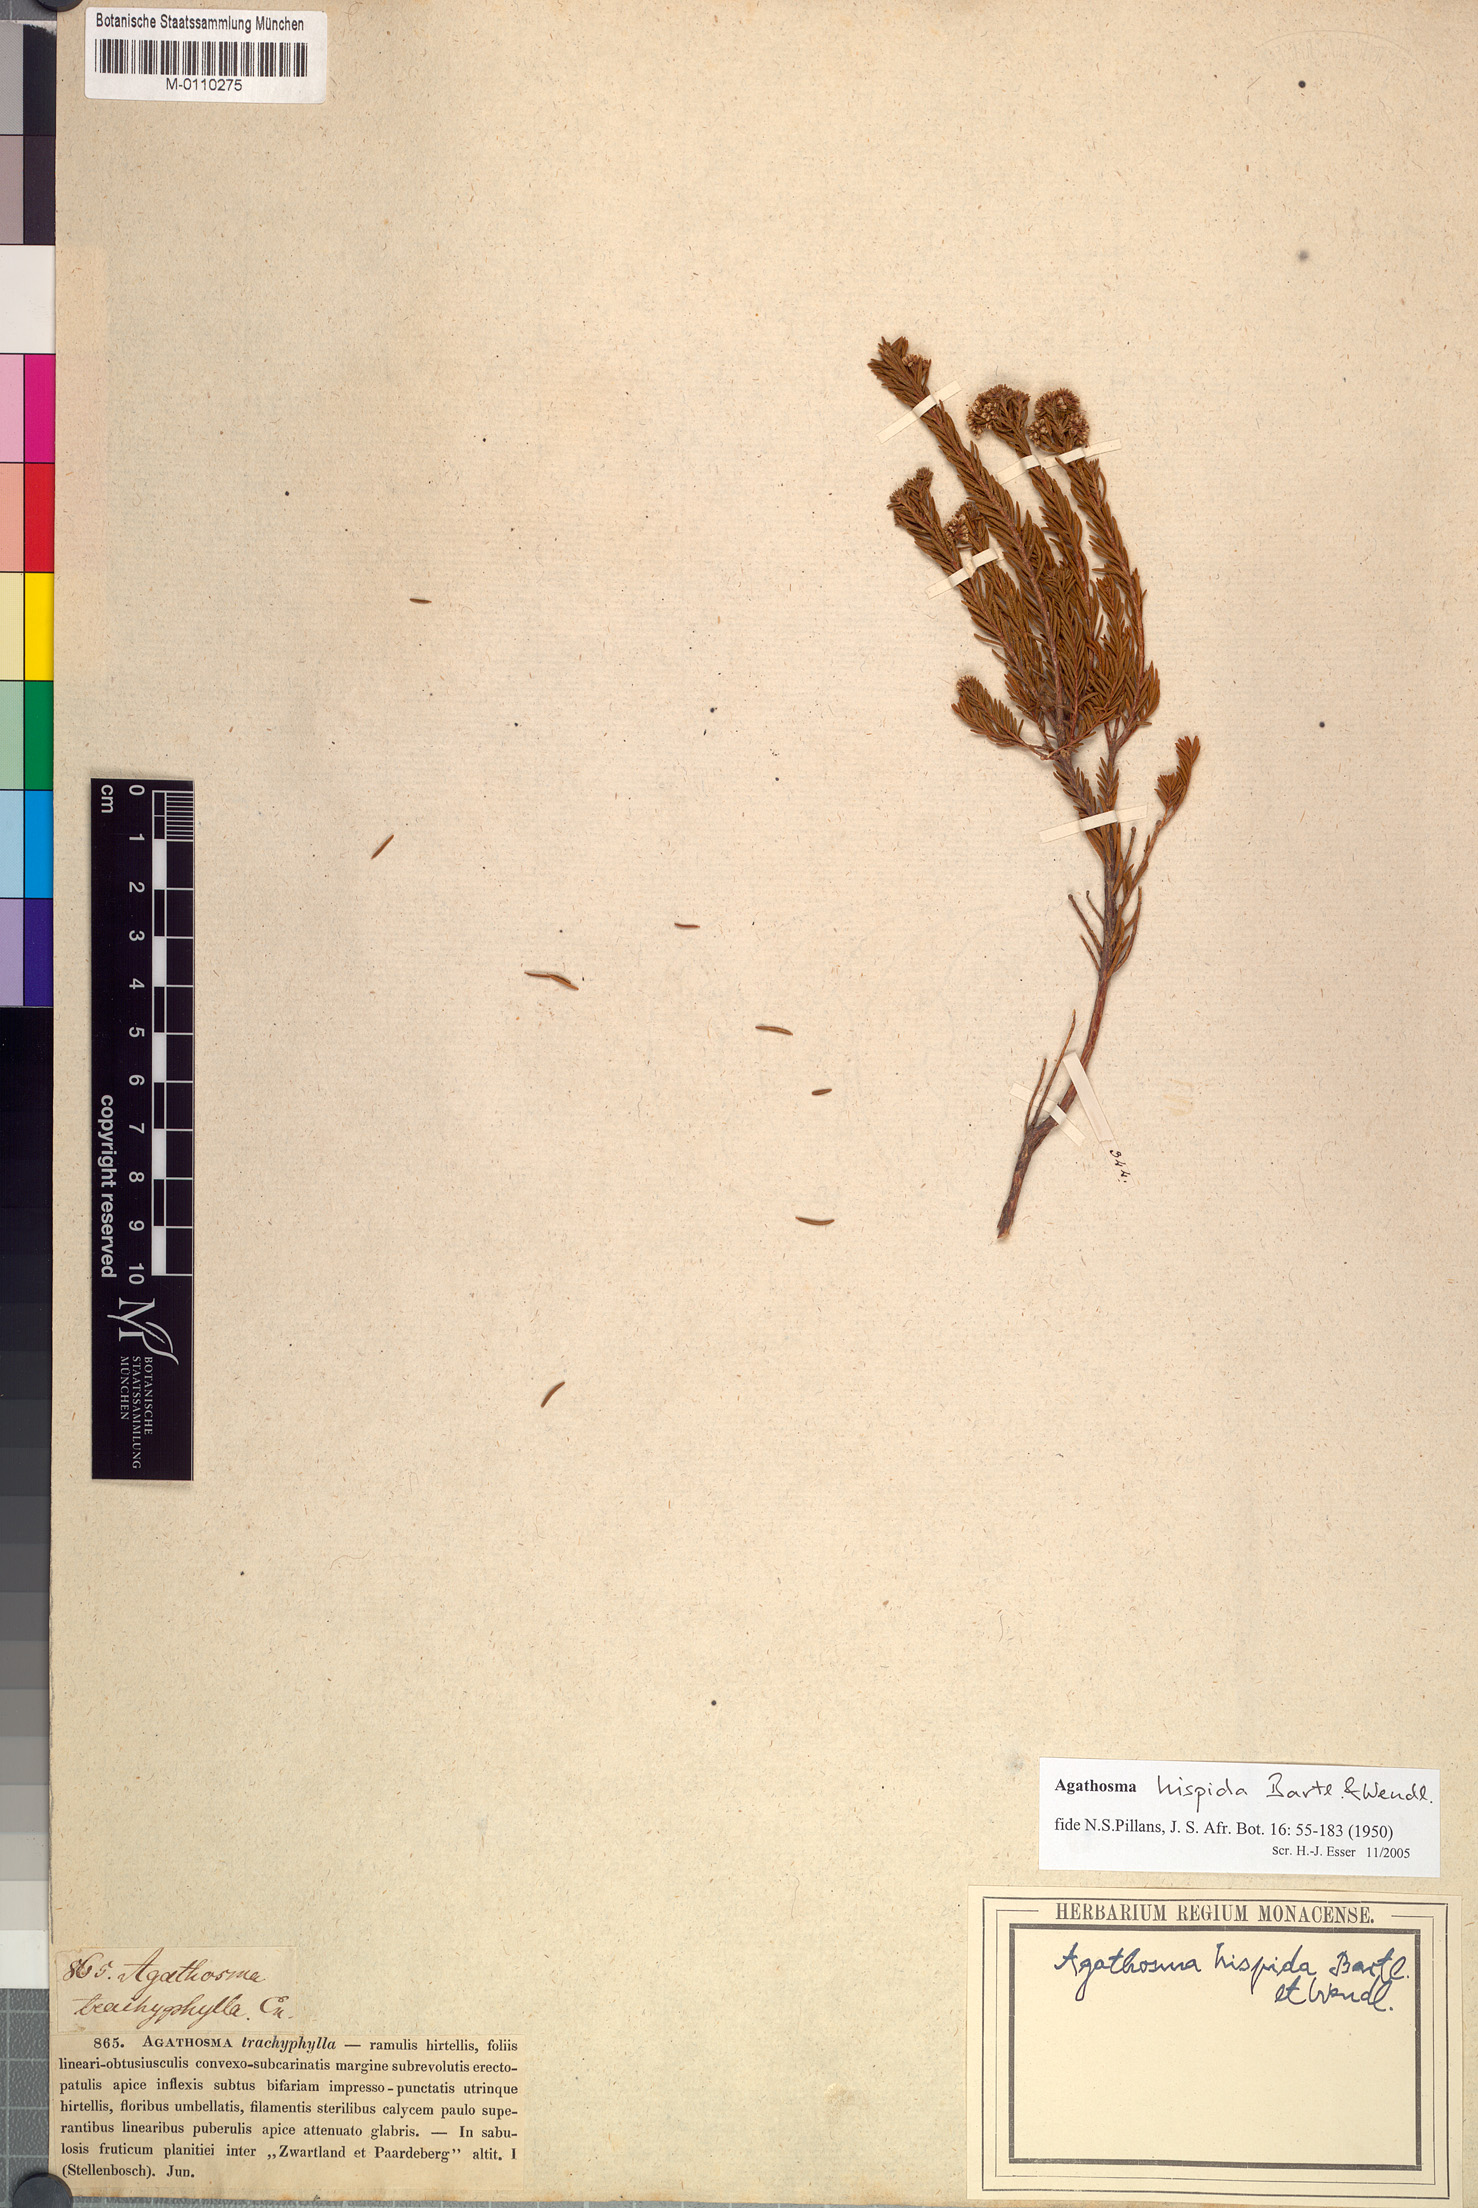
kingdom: Plantae
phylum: Tracheophyta
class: Magnoliopsida
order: Sapindales
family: Rutaceae
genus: Agathosma
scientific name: Agathosma hispida
